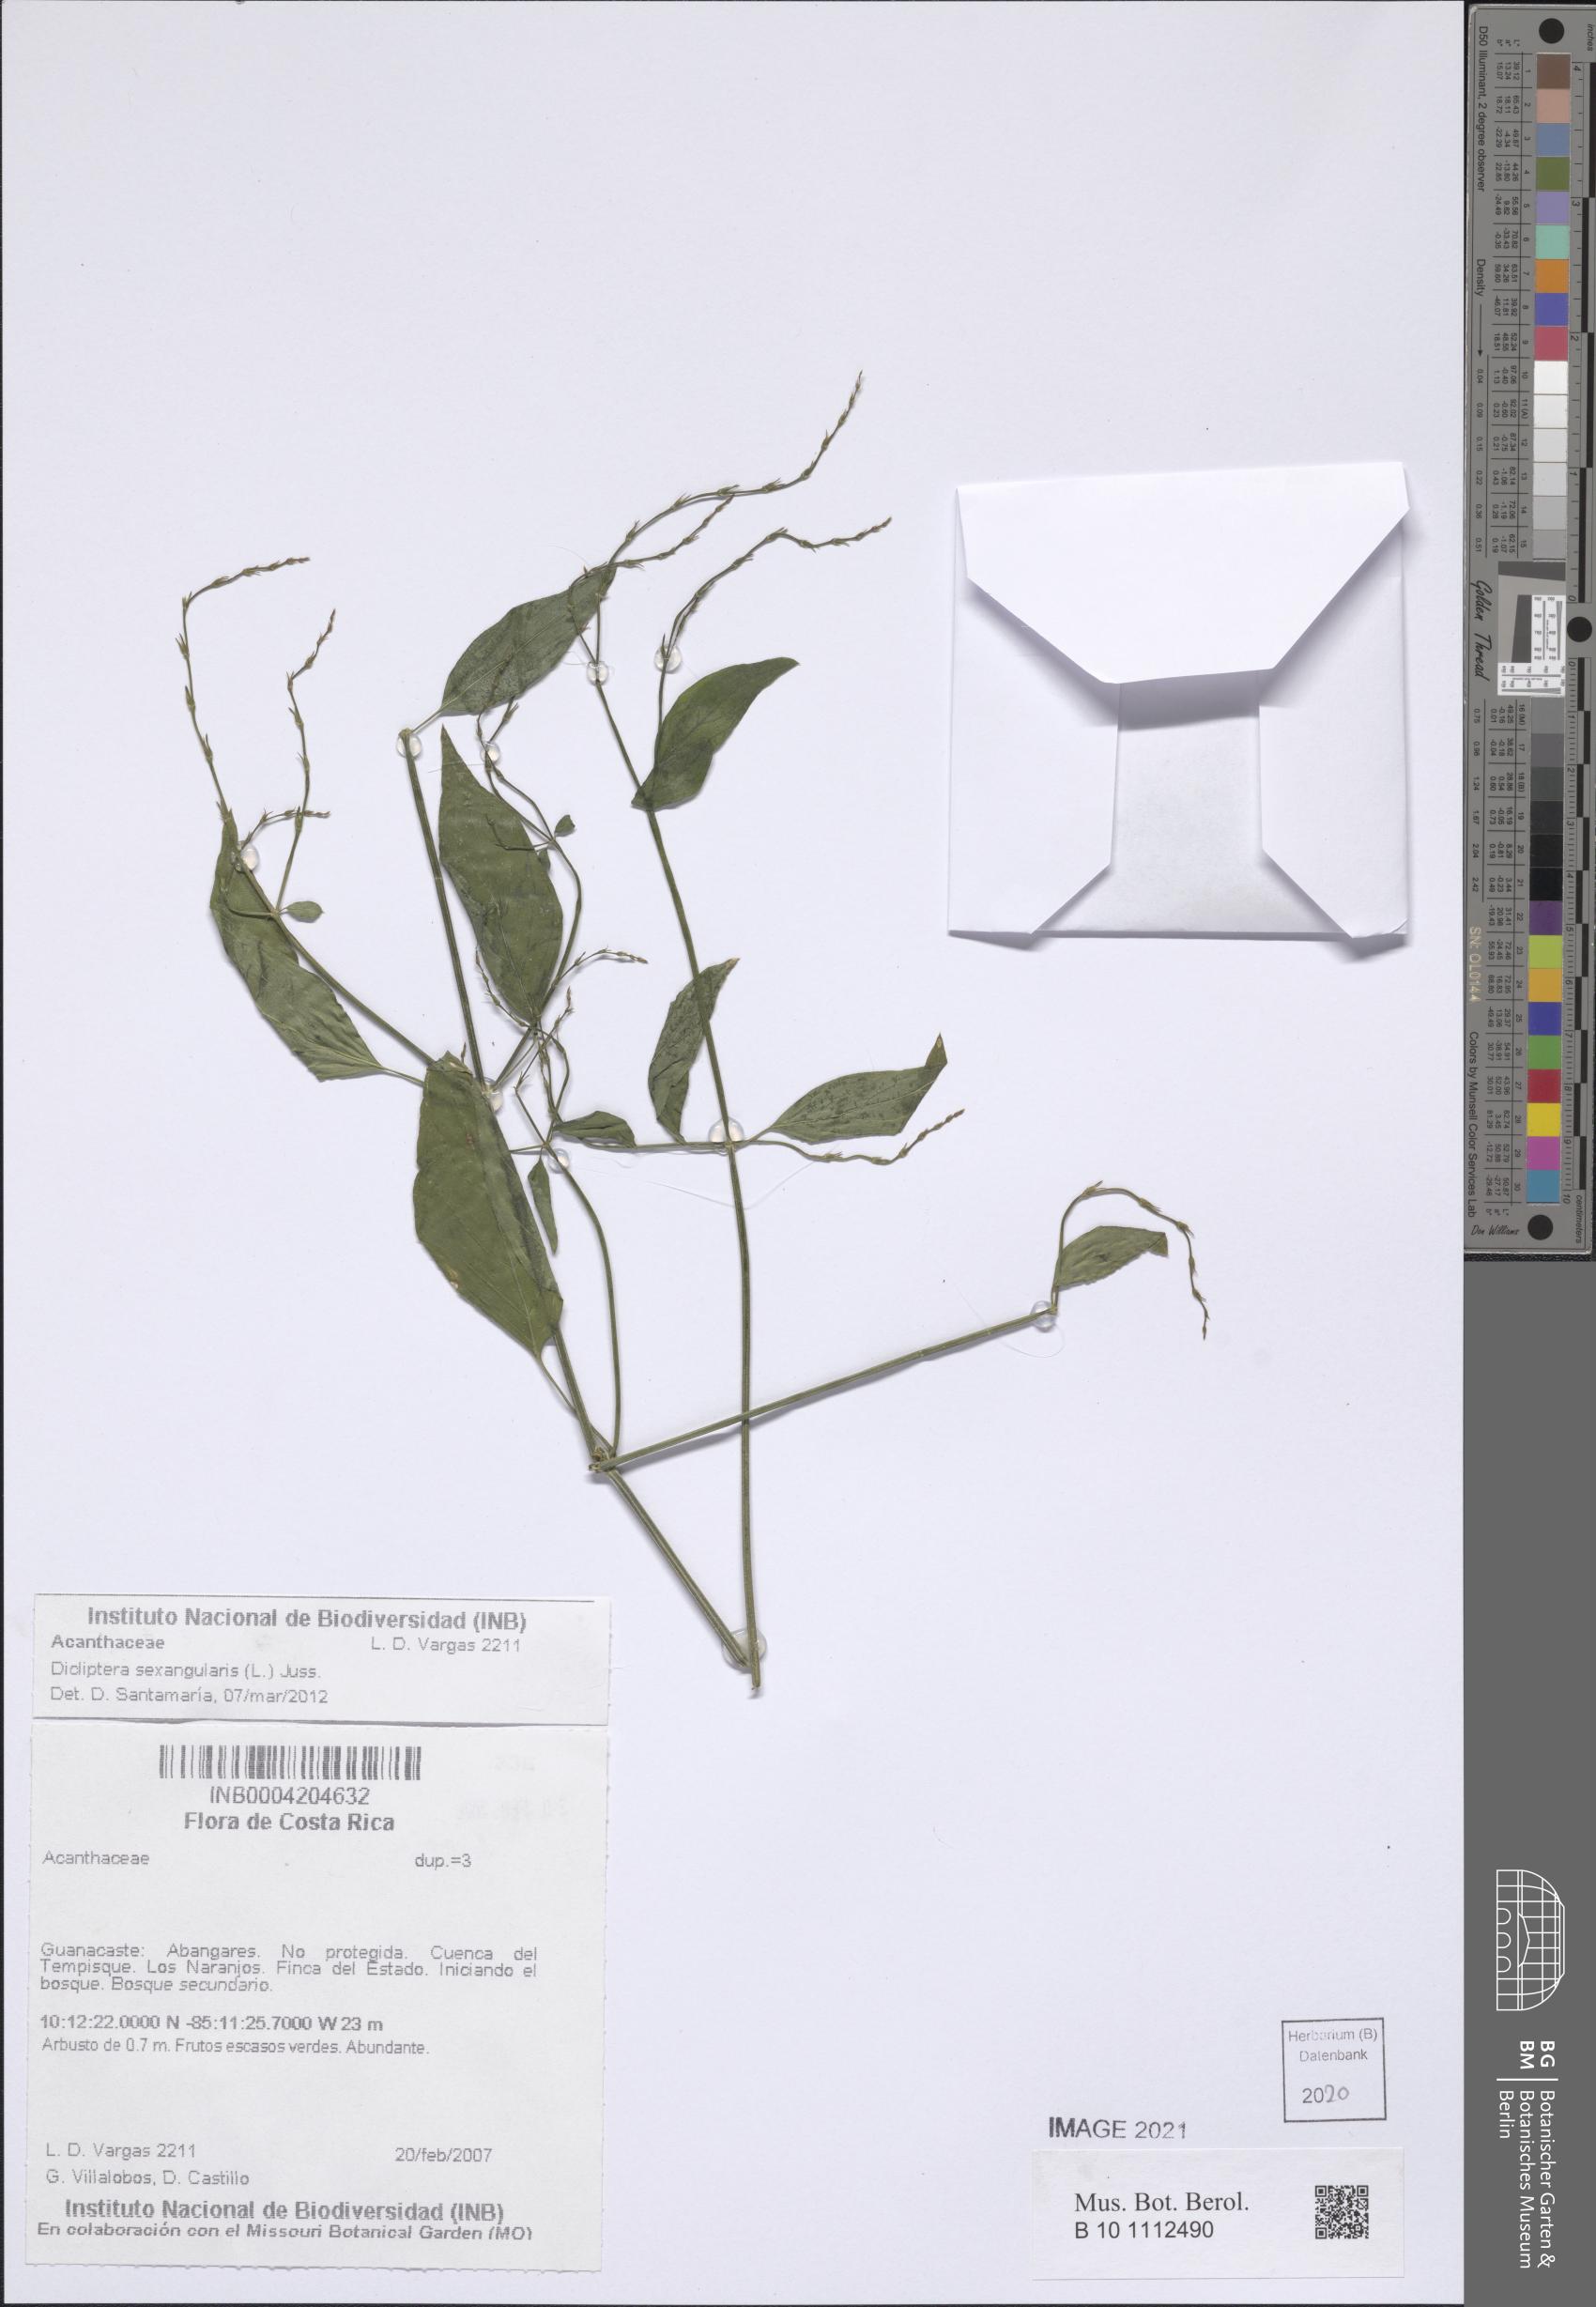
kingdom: Plantae
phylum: Tracheophyta
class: Magnoliopsida
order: Lamiales
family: Acanthaceae
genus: Dicliptera
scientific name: Dicliptera sexangularis
